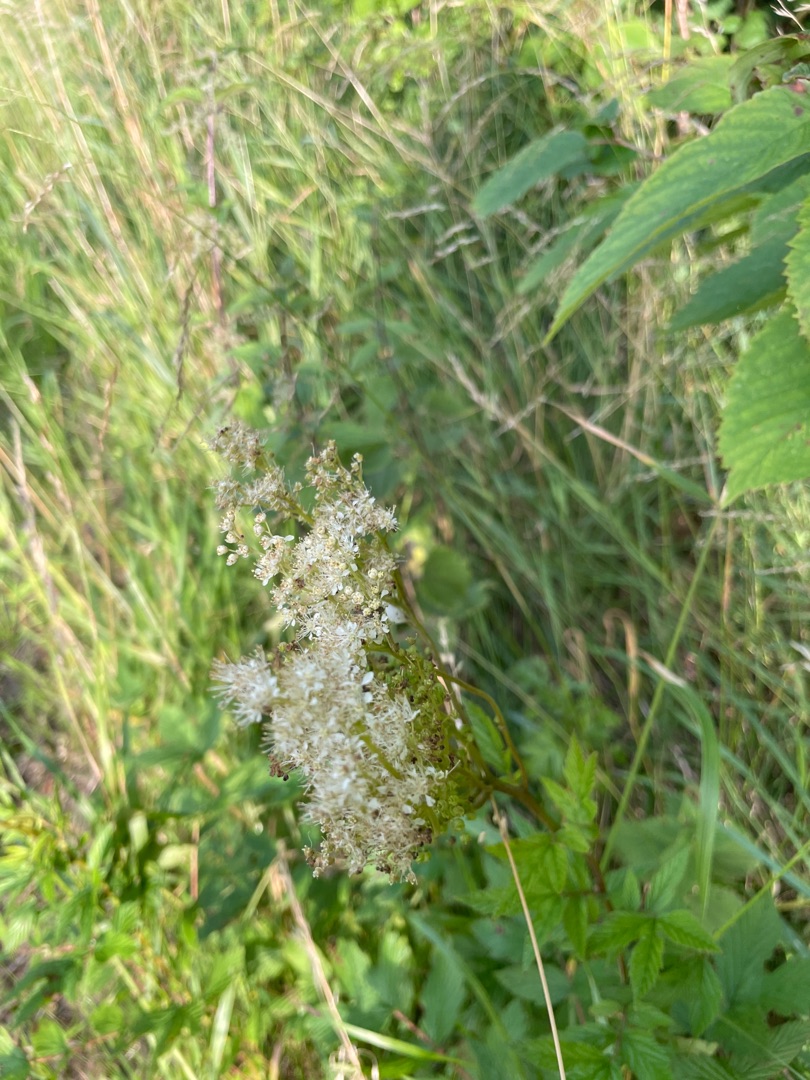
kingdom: Plantae
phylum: Tracheophyta
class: Magnoliopsida
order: Rosales
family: Rosaceae
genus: Filipendula
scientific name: Filipendula ulmaria
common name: Almindelig mjødurt
